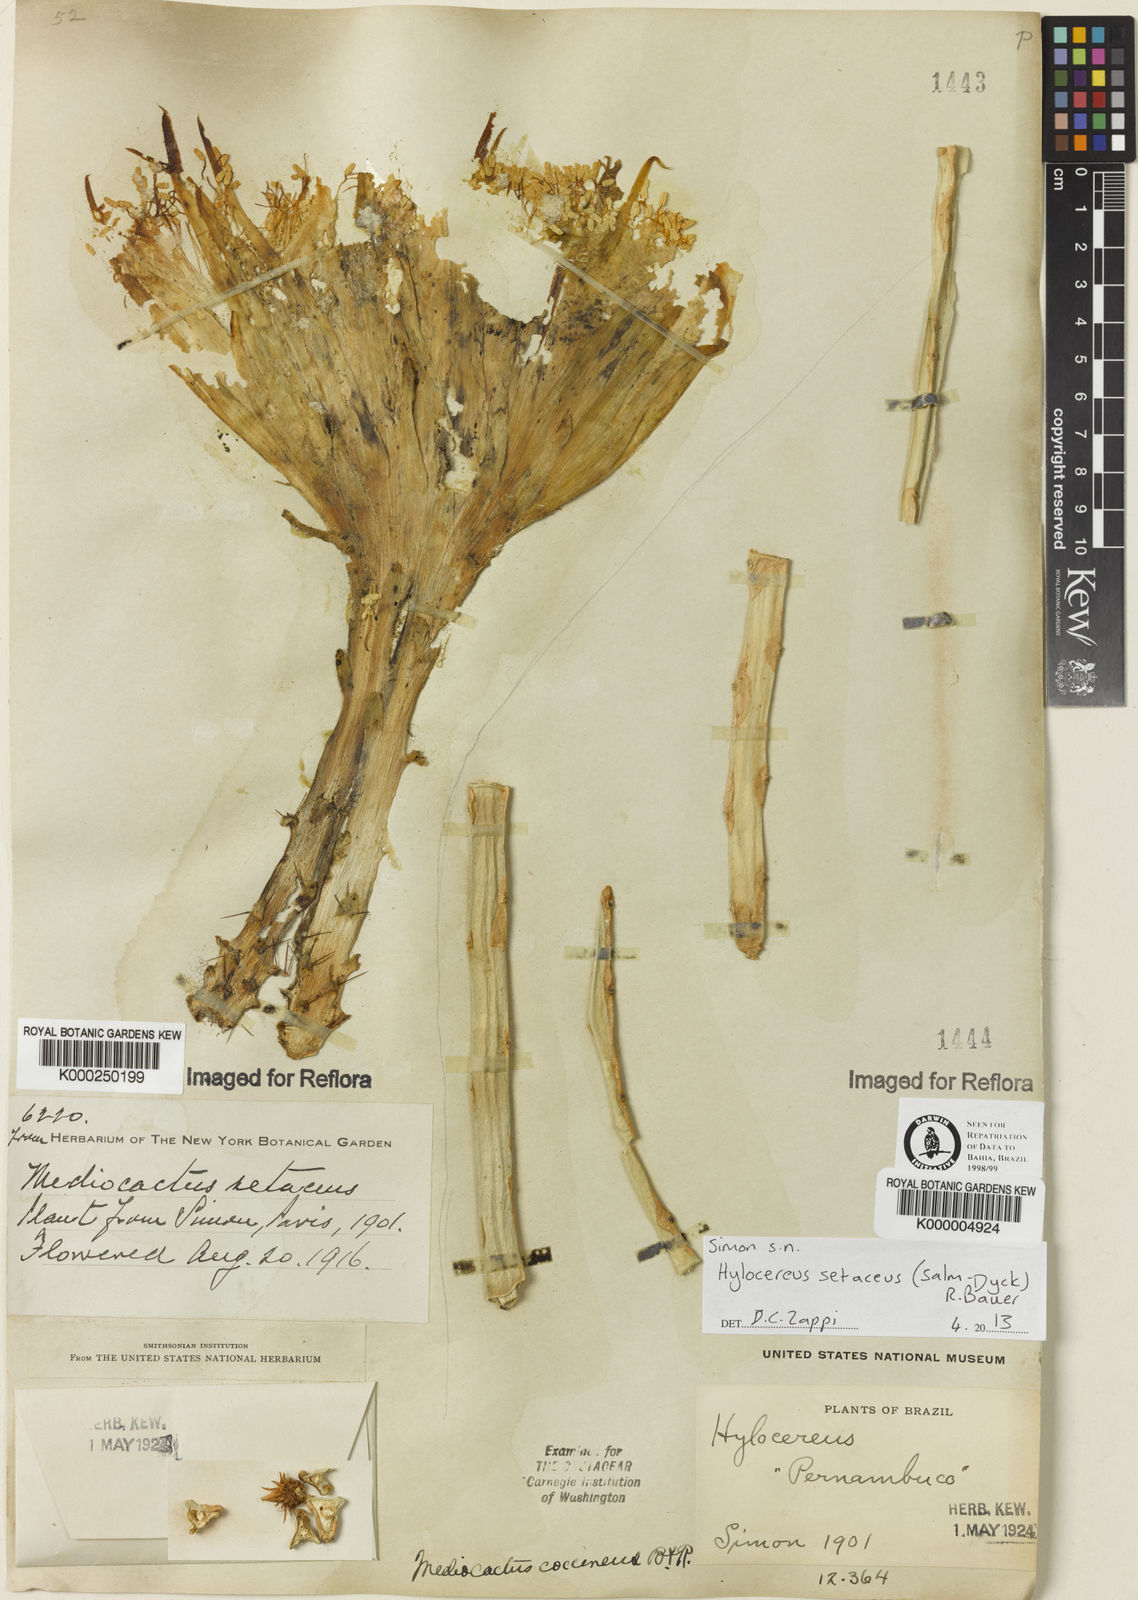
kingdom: Plantae
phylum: Tracheophyta
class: Magnoliopsida
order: Caryophyllales
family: Cactaceae
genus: Selenicereus
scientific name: Selenicereus setaceus
